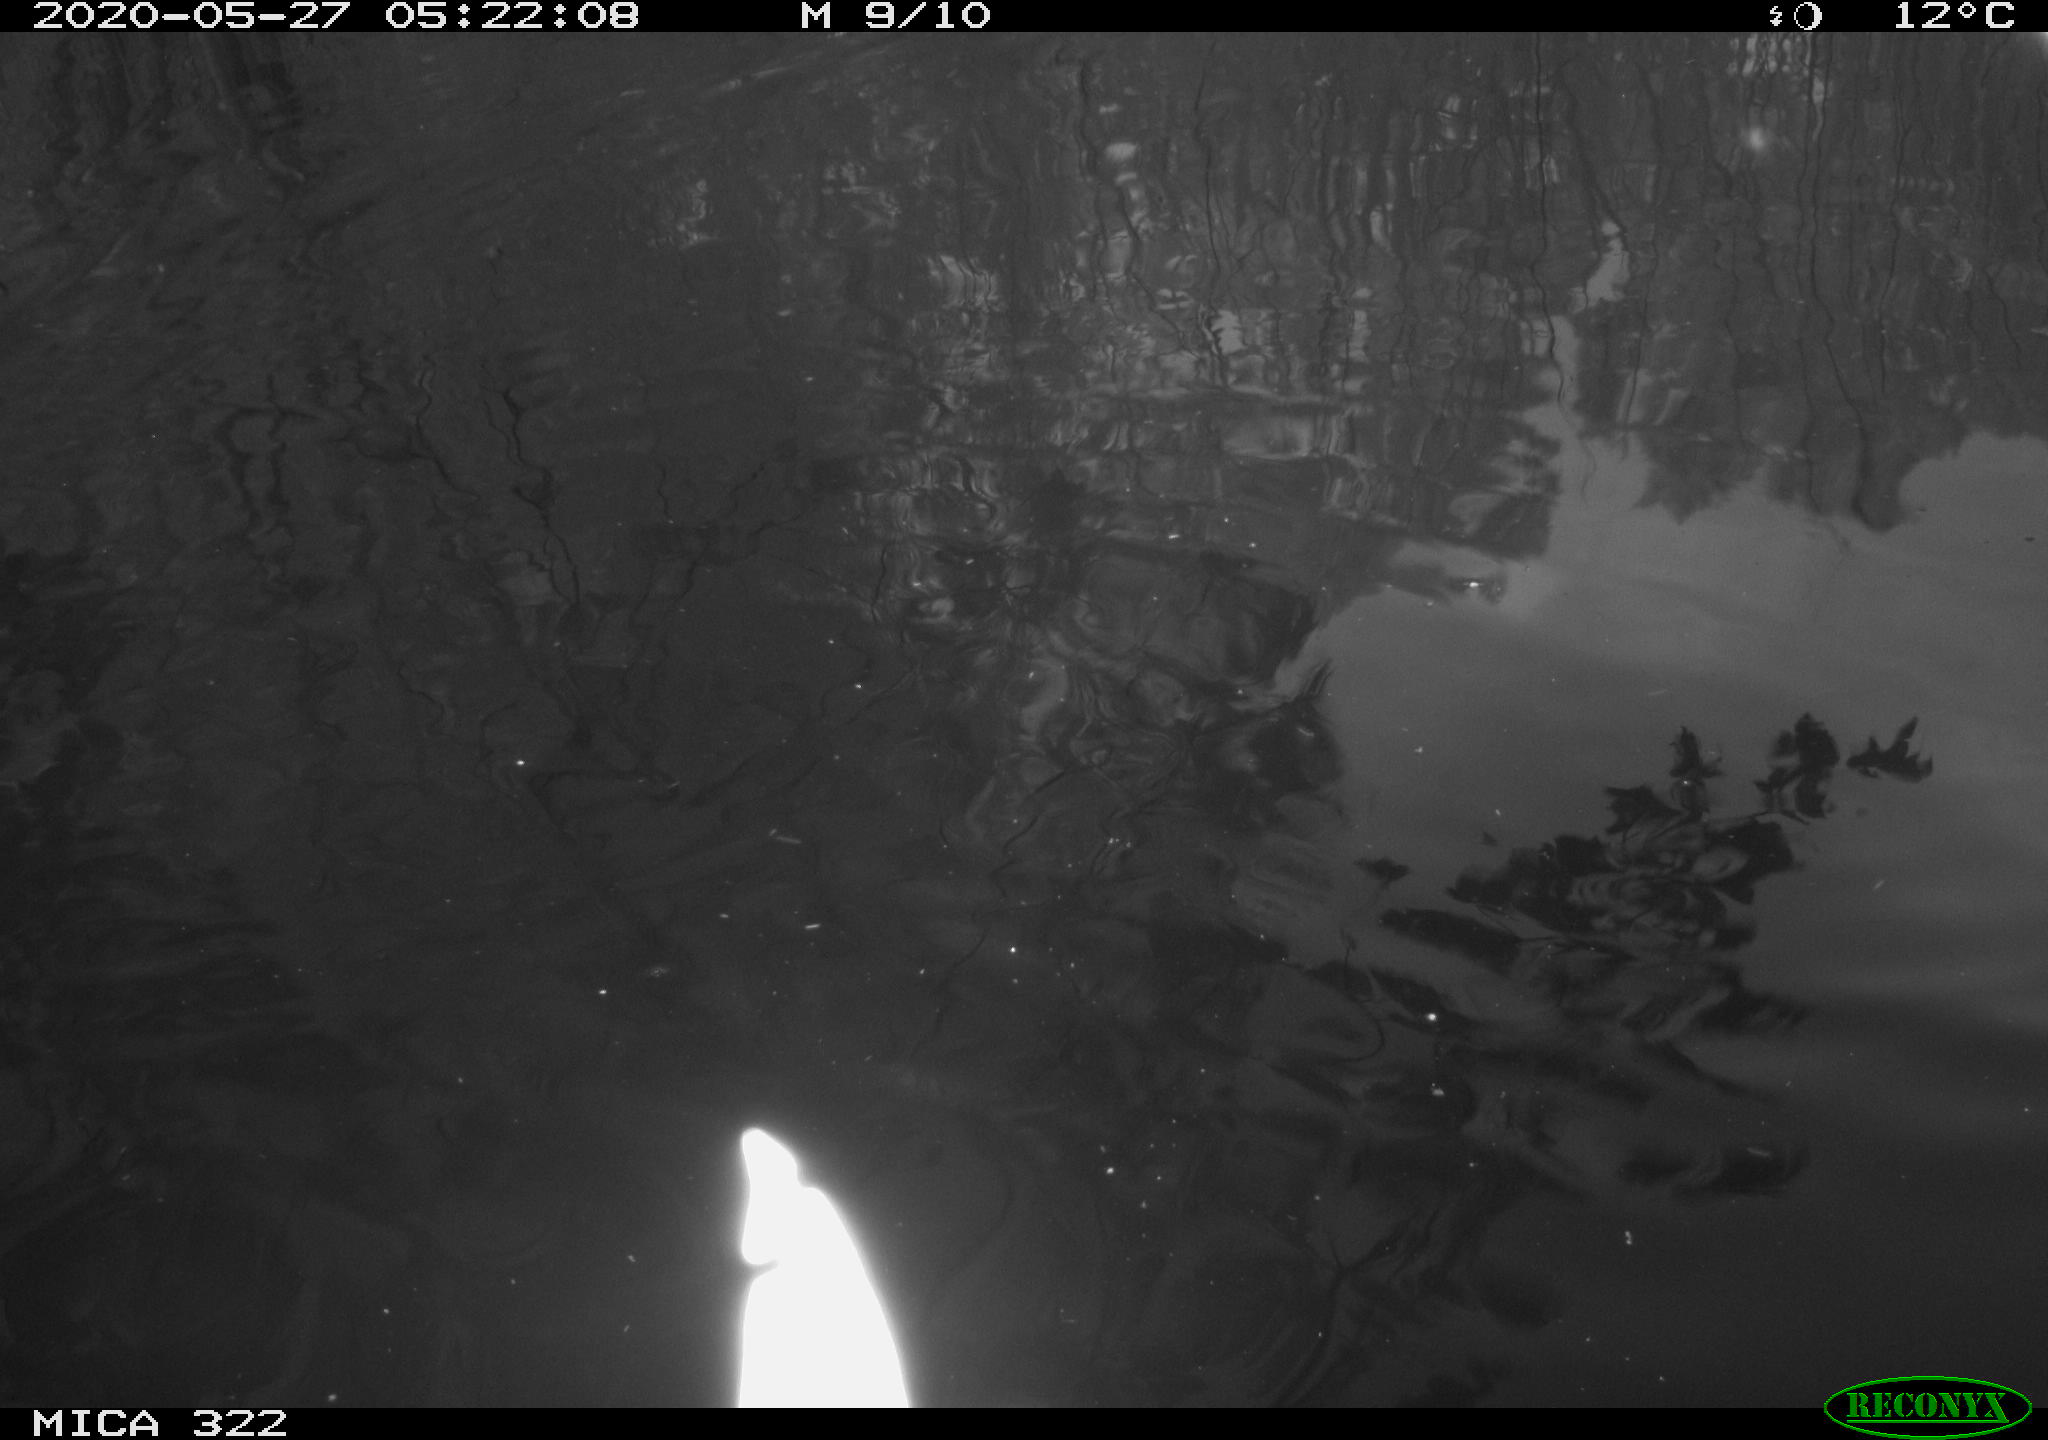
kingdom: Animalia
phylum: Chordata
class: Aves
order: Anseriformes
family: Anatidae
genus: Anas
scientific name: Anas platyrhynchos
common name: Mallard
